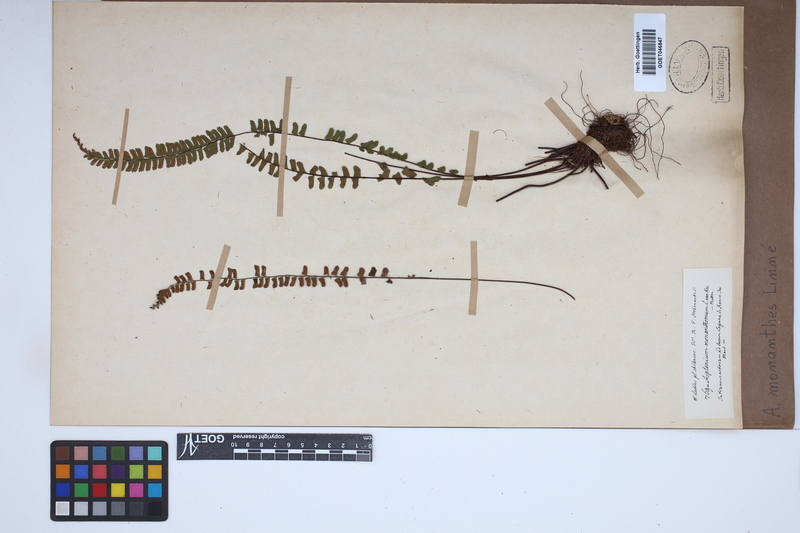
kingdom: Plantae
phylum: Tracheophyta
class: Polypodiopsida
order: Polypodiales
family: Aspleniaceae
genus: Asplenium
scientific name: Asplenium monanthes
